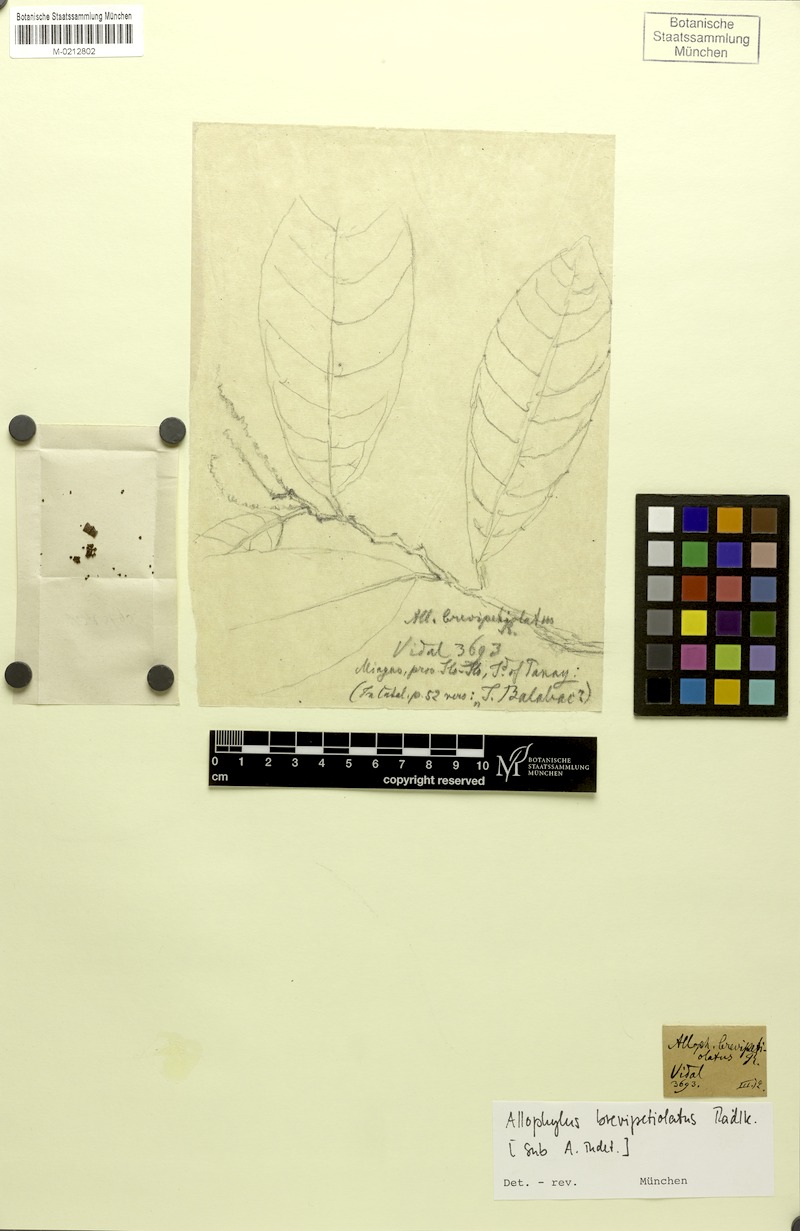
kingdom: Plantae
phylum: Tracheophyta
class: Magnoliopsida
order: Sapindales
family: Sapindaceae
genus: Allophylus
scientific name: Allophylus brevipetiolaris
